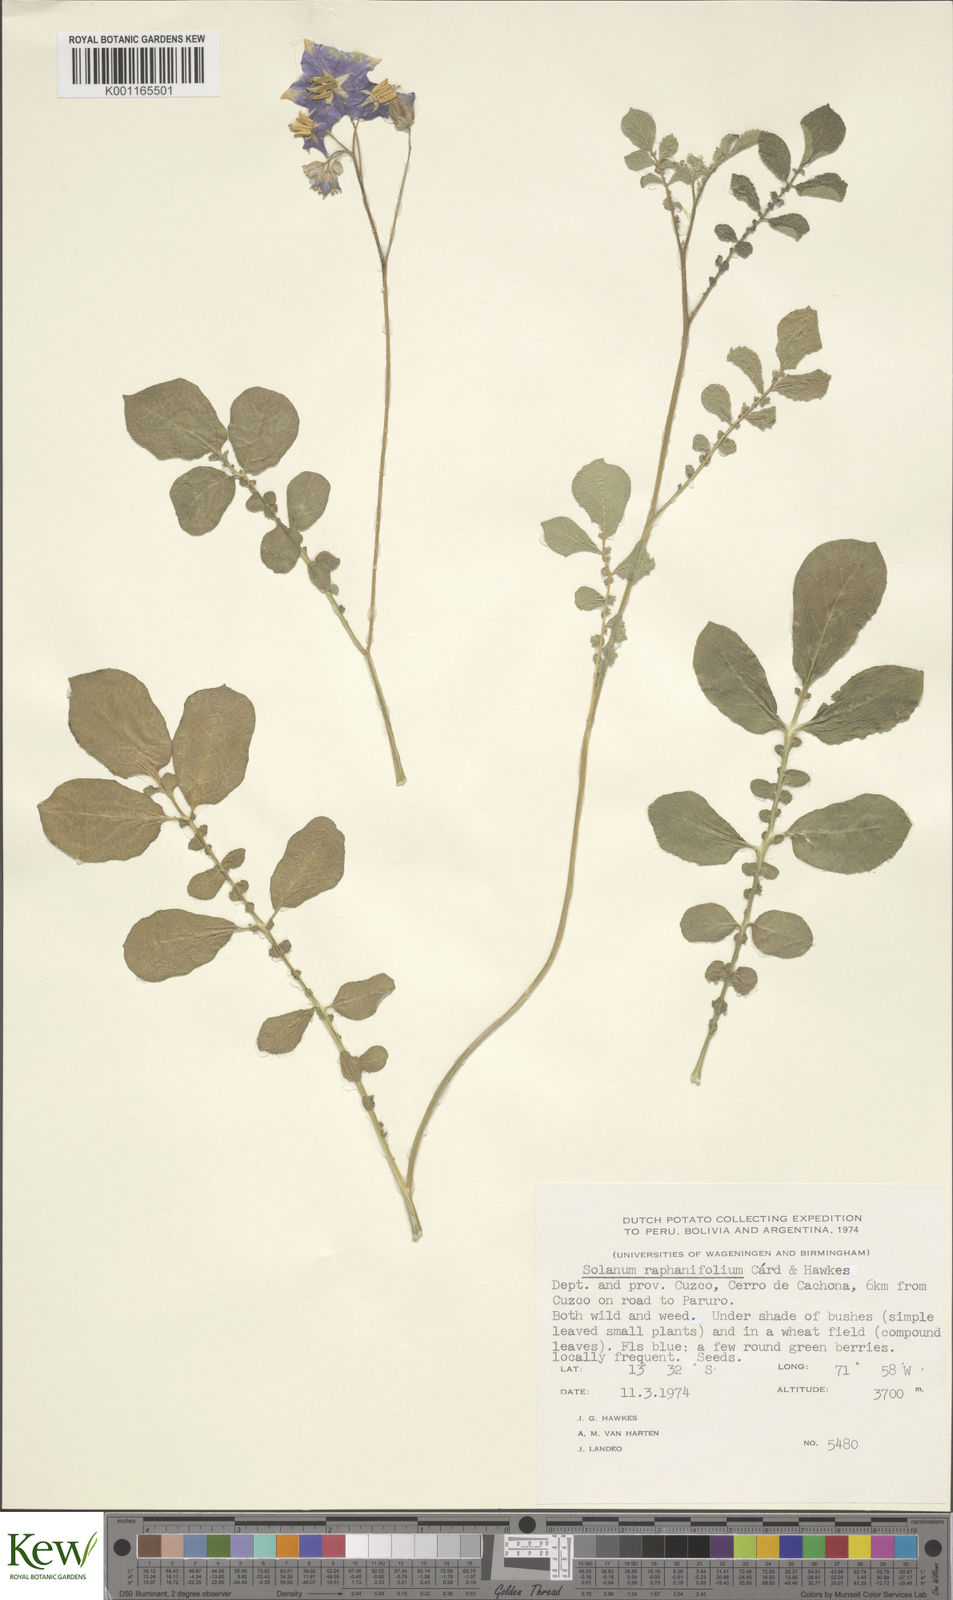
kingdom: Plantae
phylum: Tracheophyta
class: Magnoliopsida
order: Solanales
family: Solanaceae
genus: Solanum
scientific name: Solanum raphanifolium
